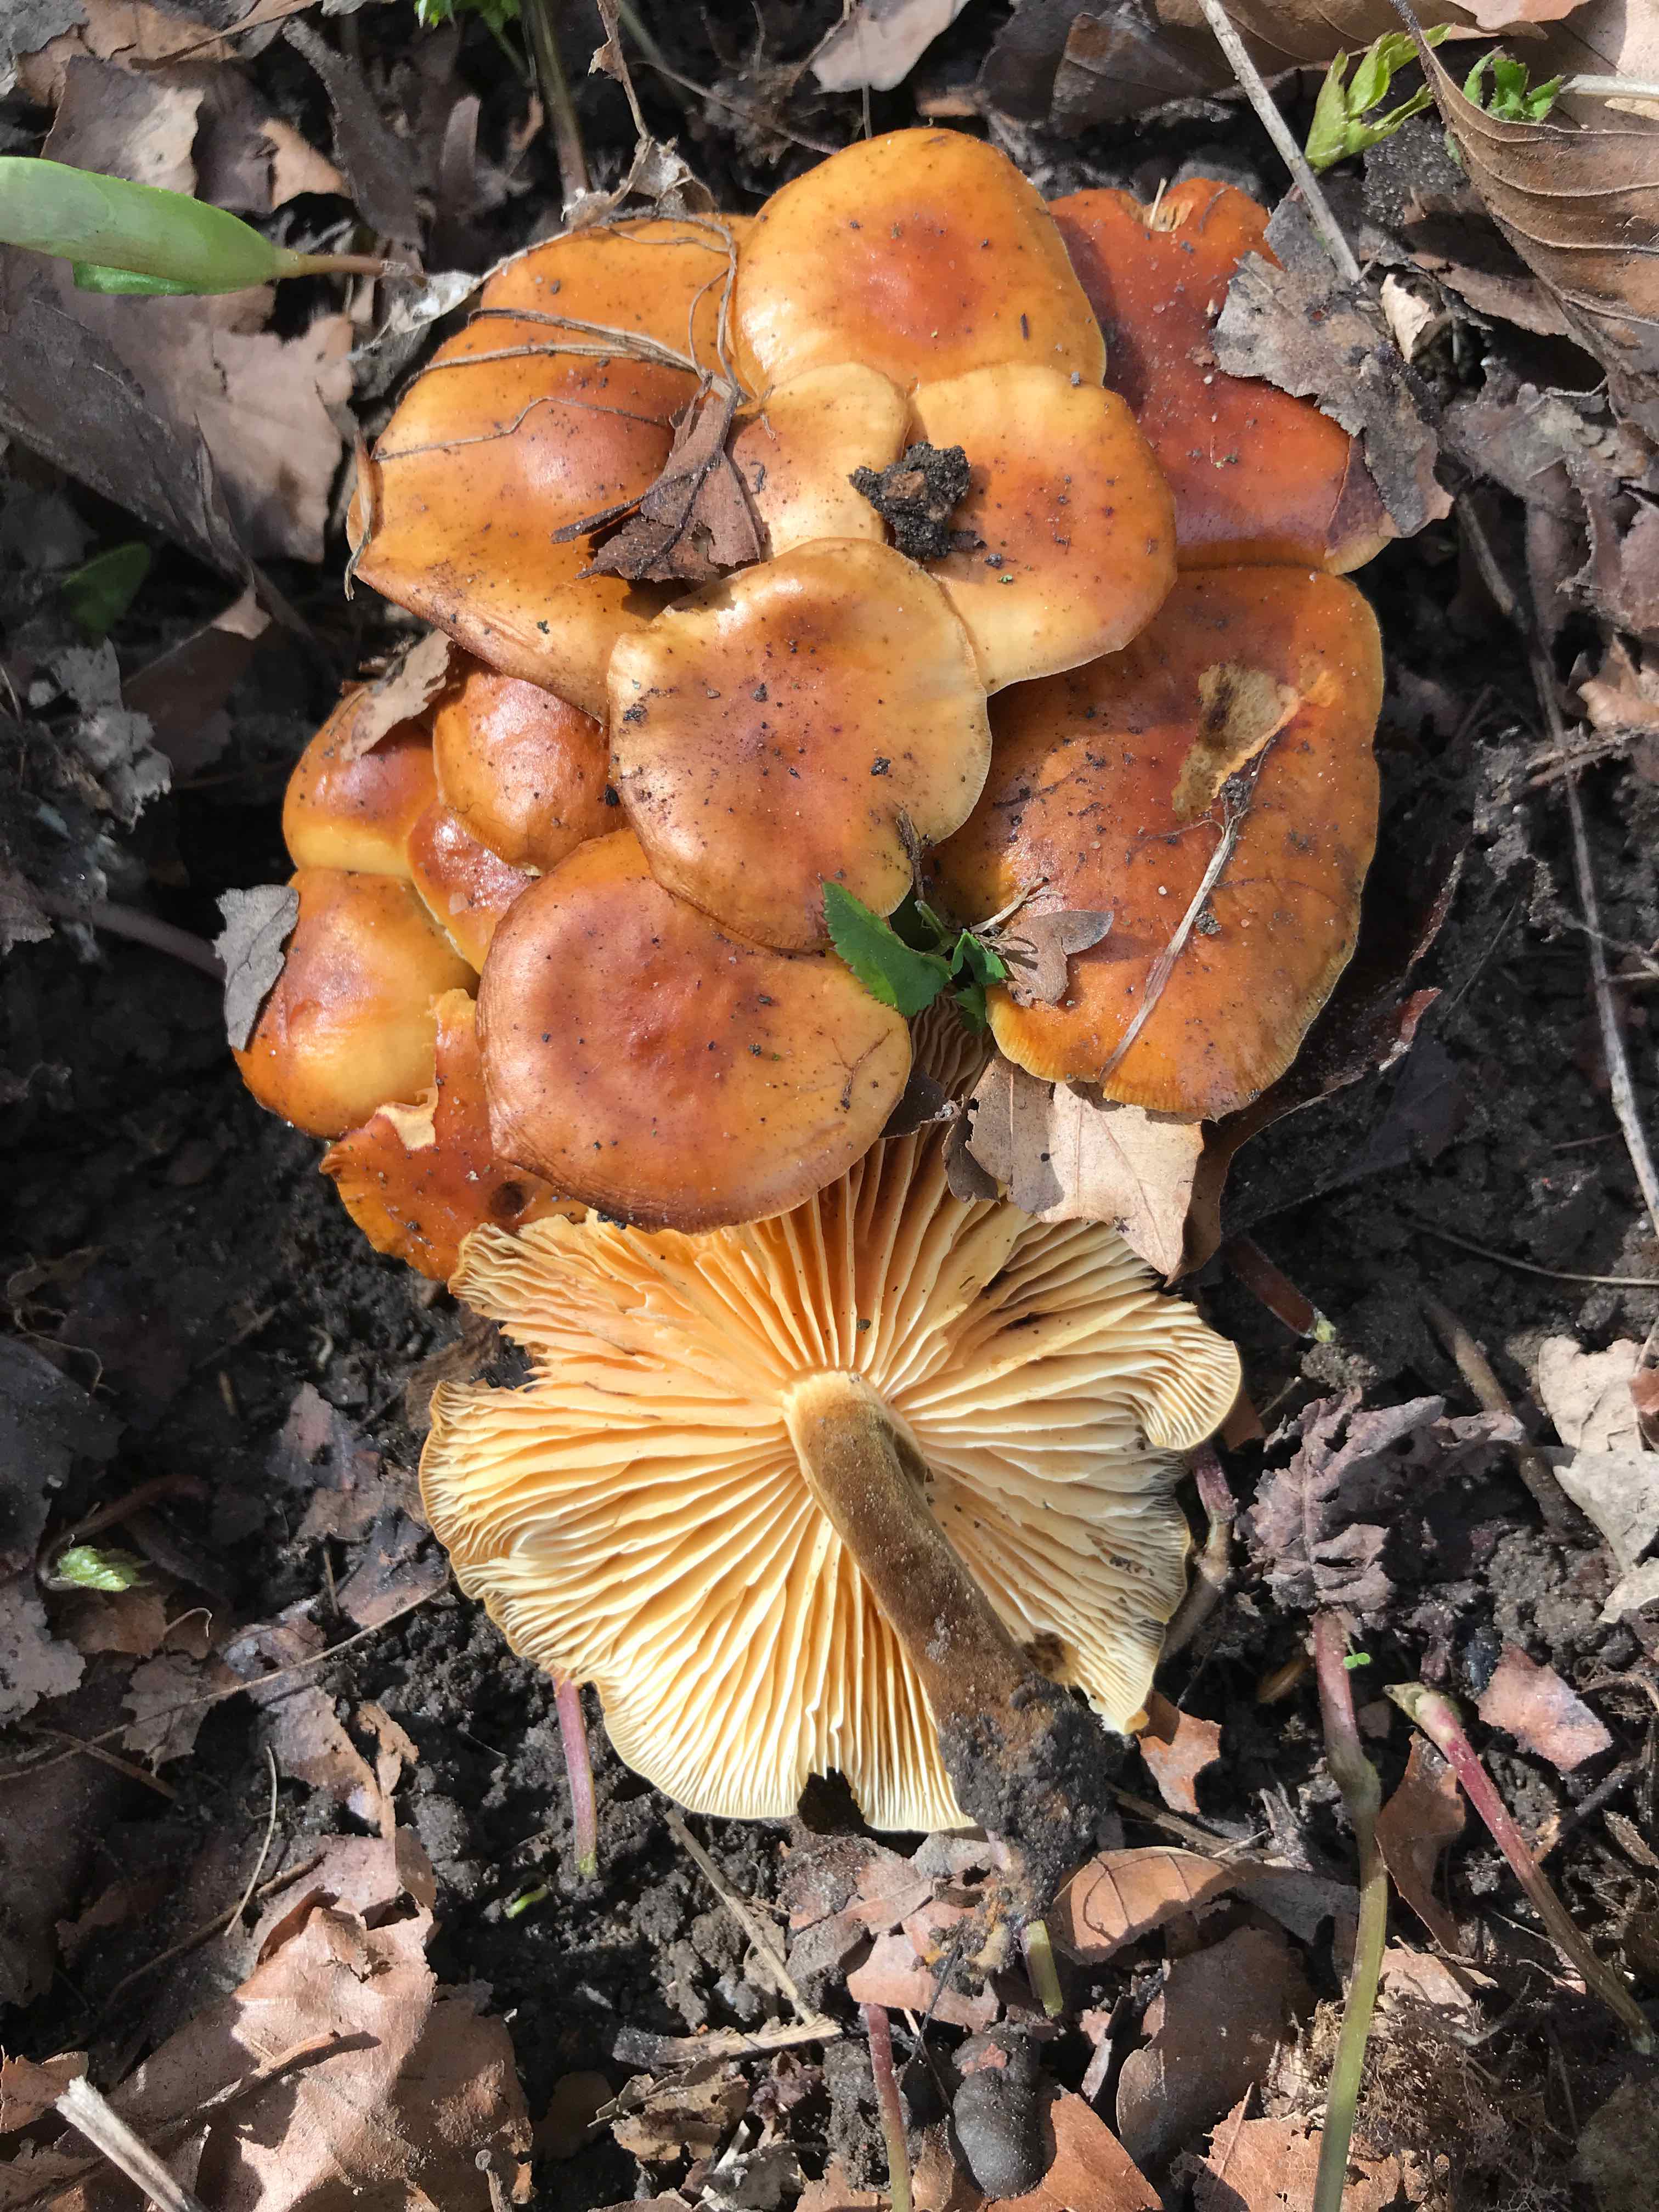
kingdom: Fungi
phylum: Basidiomycota
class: Agaricomycetes
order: Agaricales
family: Physalacriaceae
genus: Flammulina
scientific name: Flammulina velutipes
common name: gul fløjlsfod
